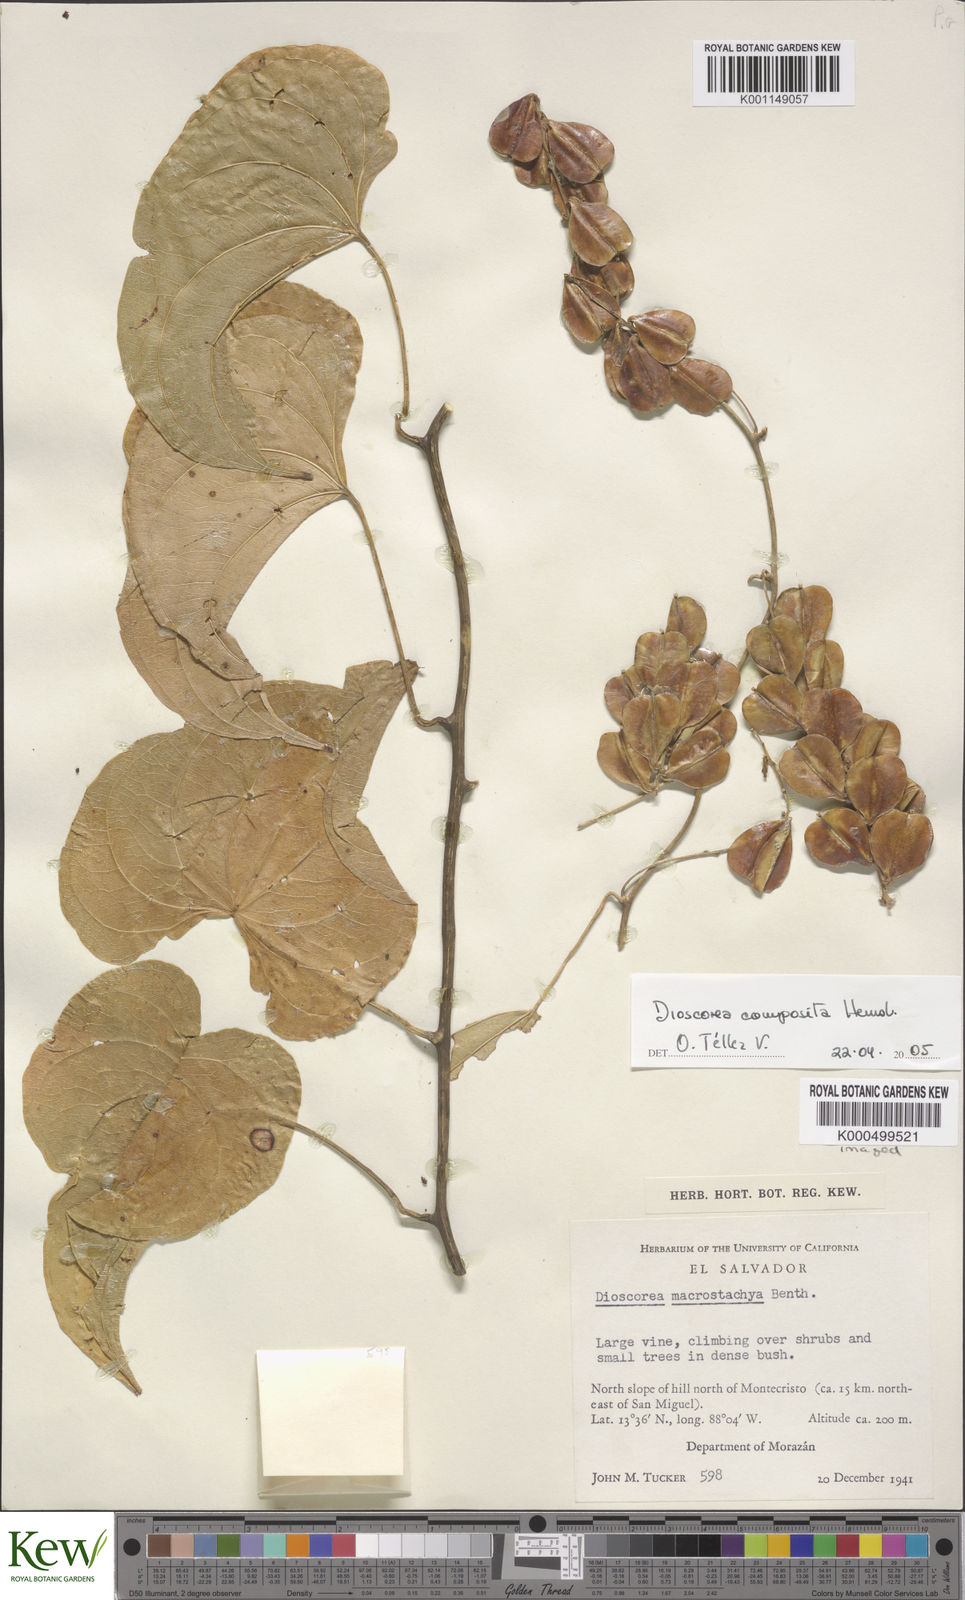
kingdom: Plantae
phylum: Tracheophyta
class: Liliopsida
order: Dioscoreales
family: Dioscoreaceae
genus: Dioscorea
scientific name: Dioscorea composita
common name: Barbasco
